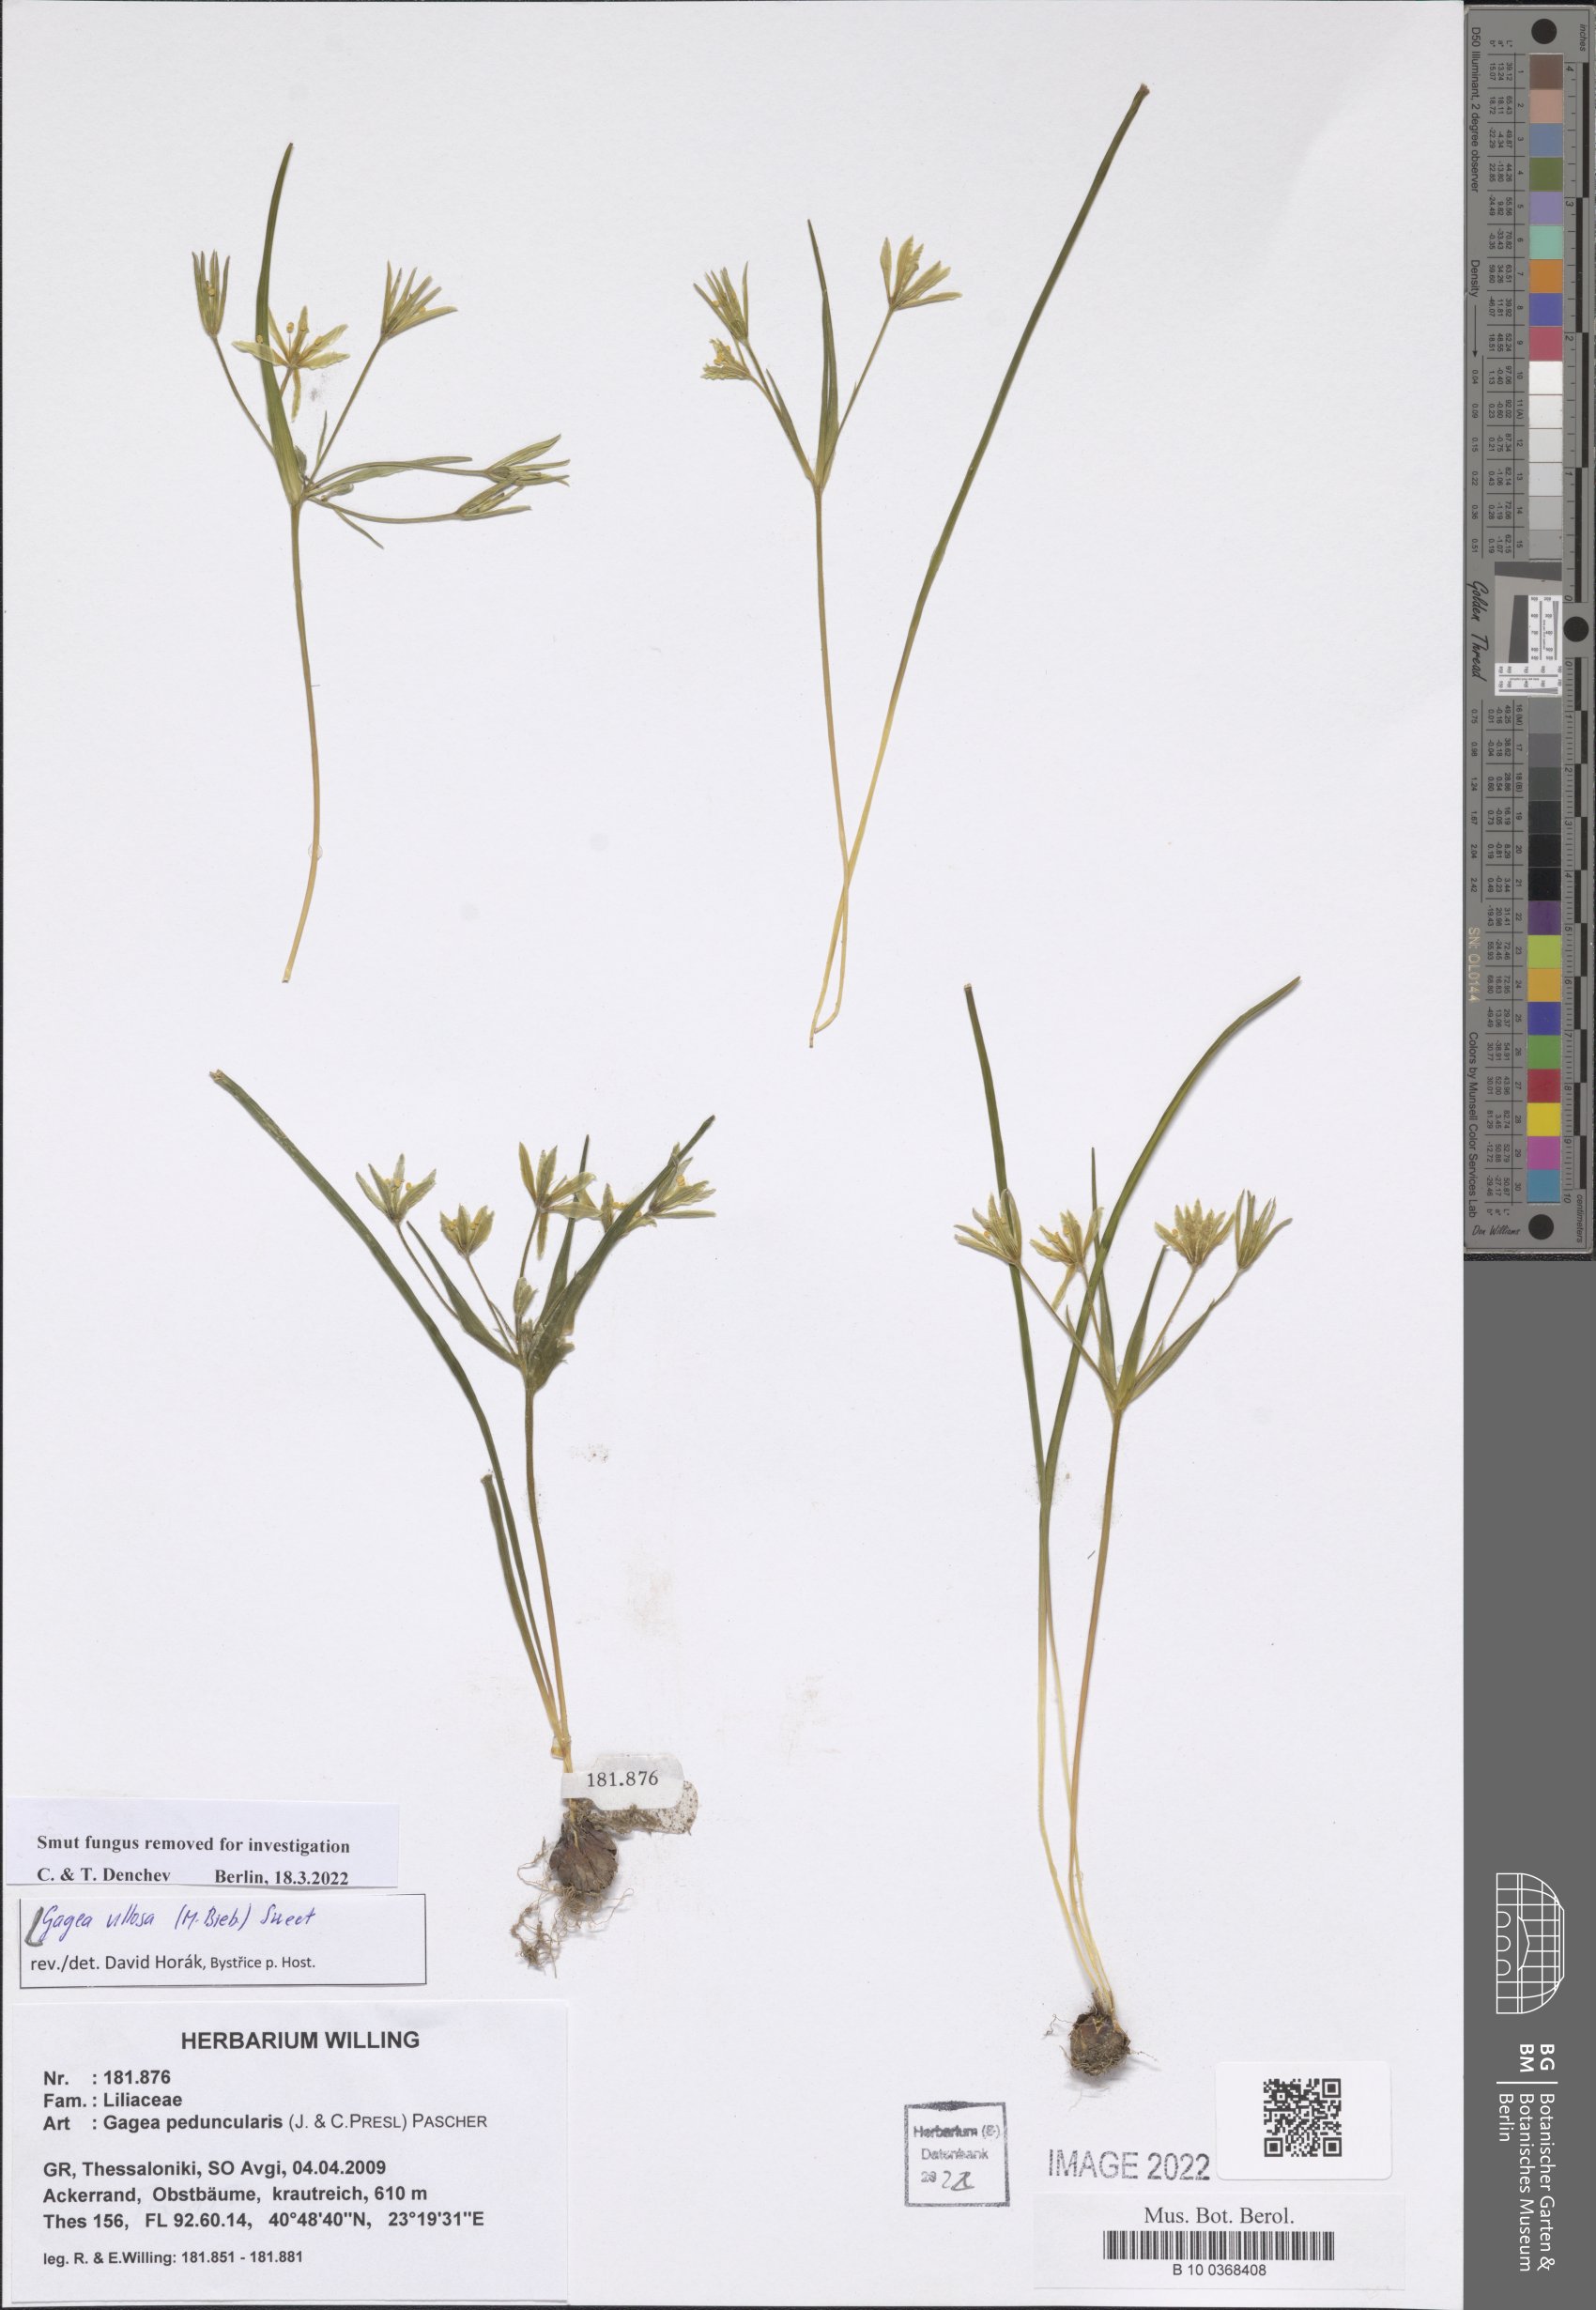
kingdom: Plantae
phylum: Tracheophyta
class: Liliopsida
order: Liliales
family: Liliaceae
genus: Gagea
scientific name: Gagea villosa
